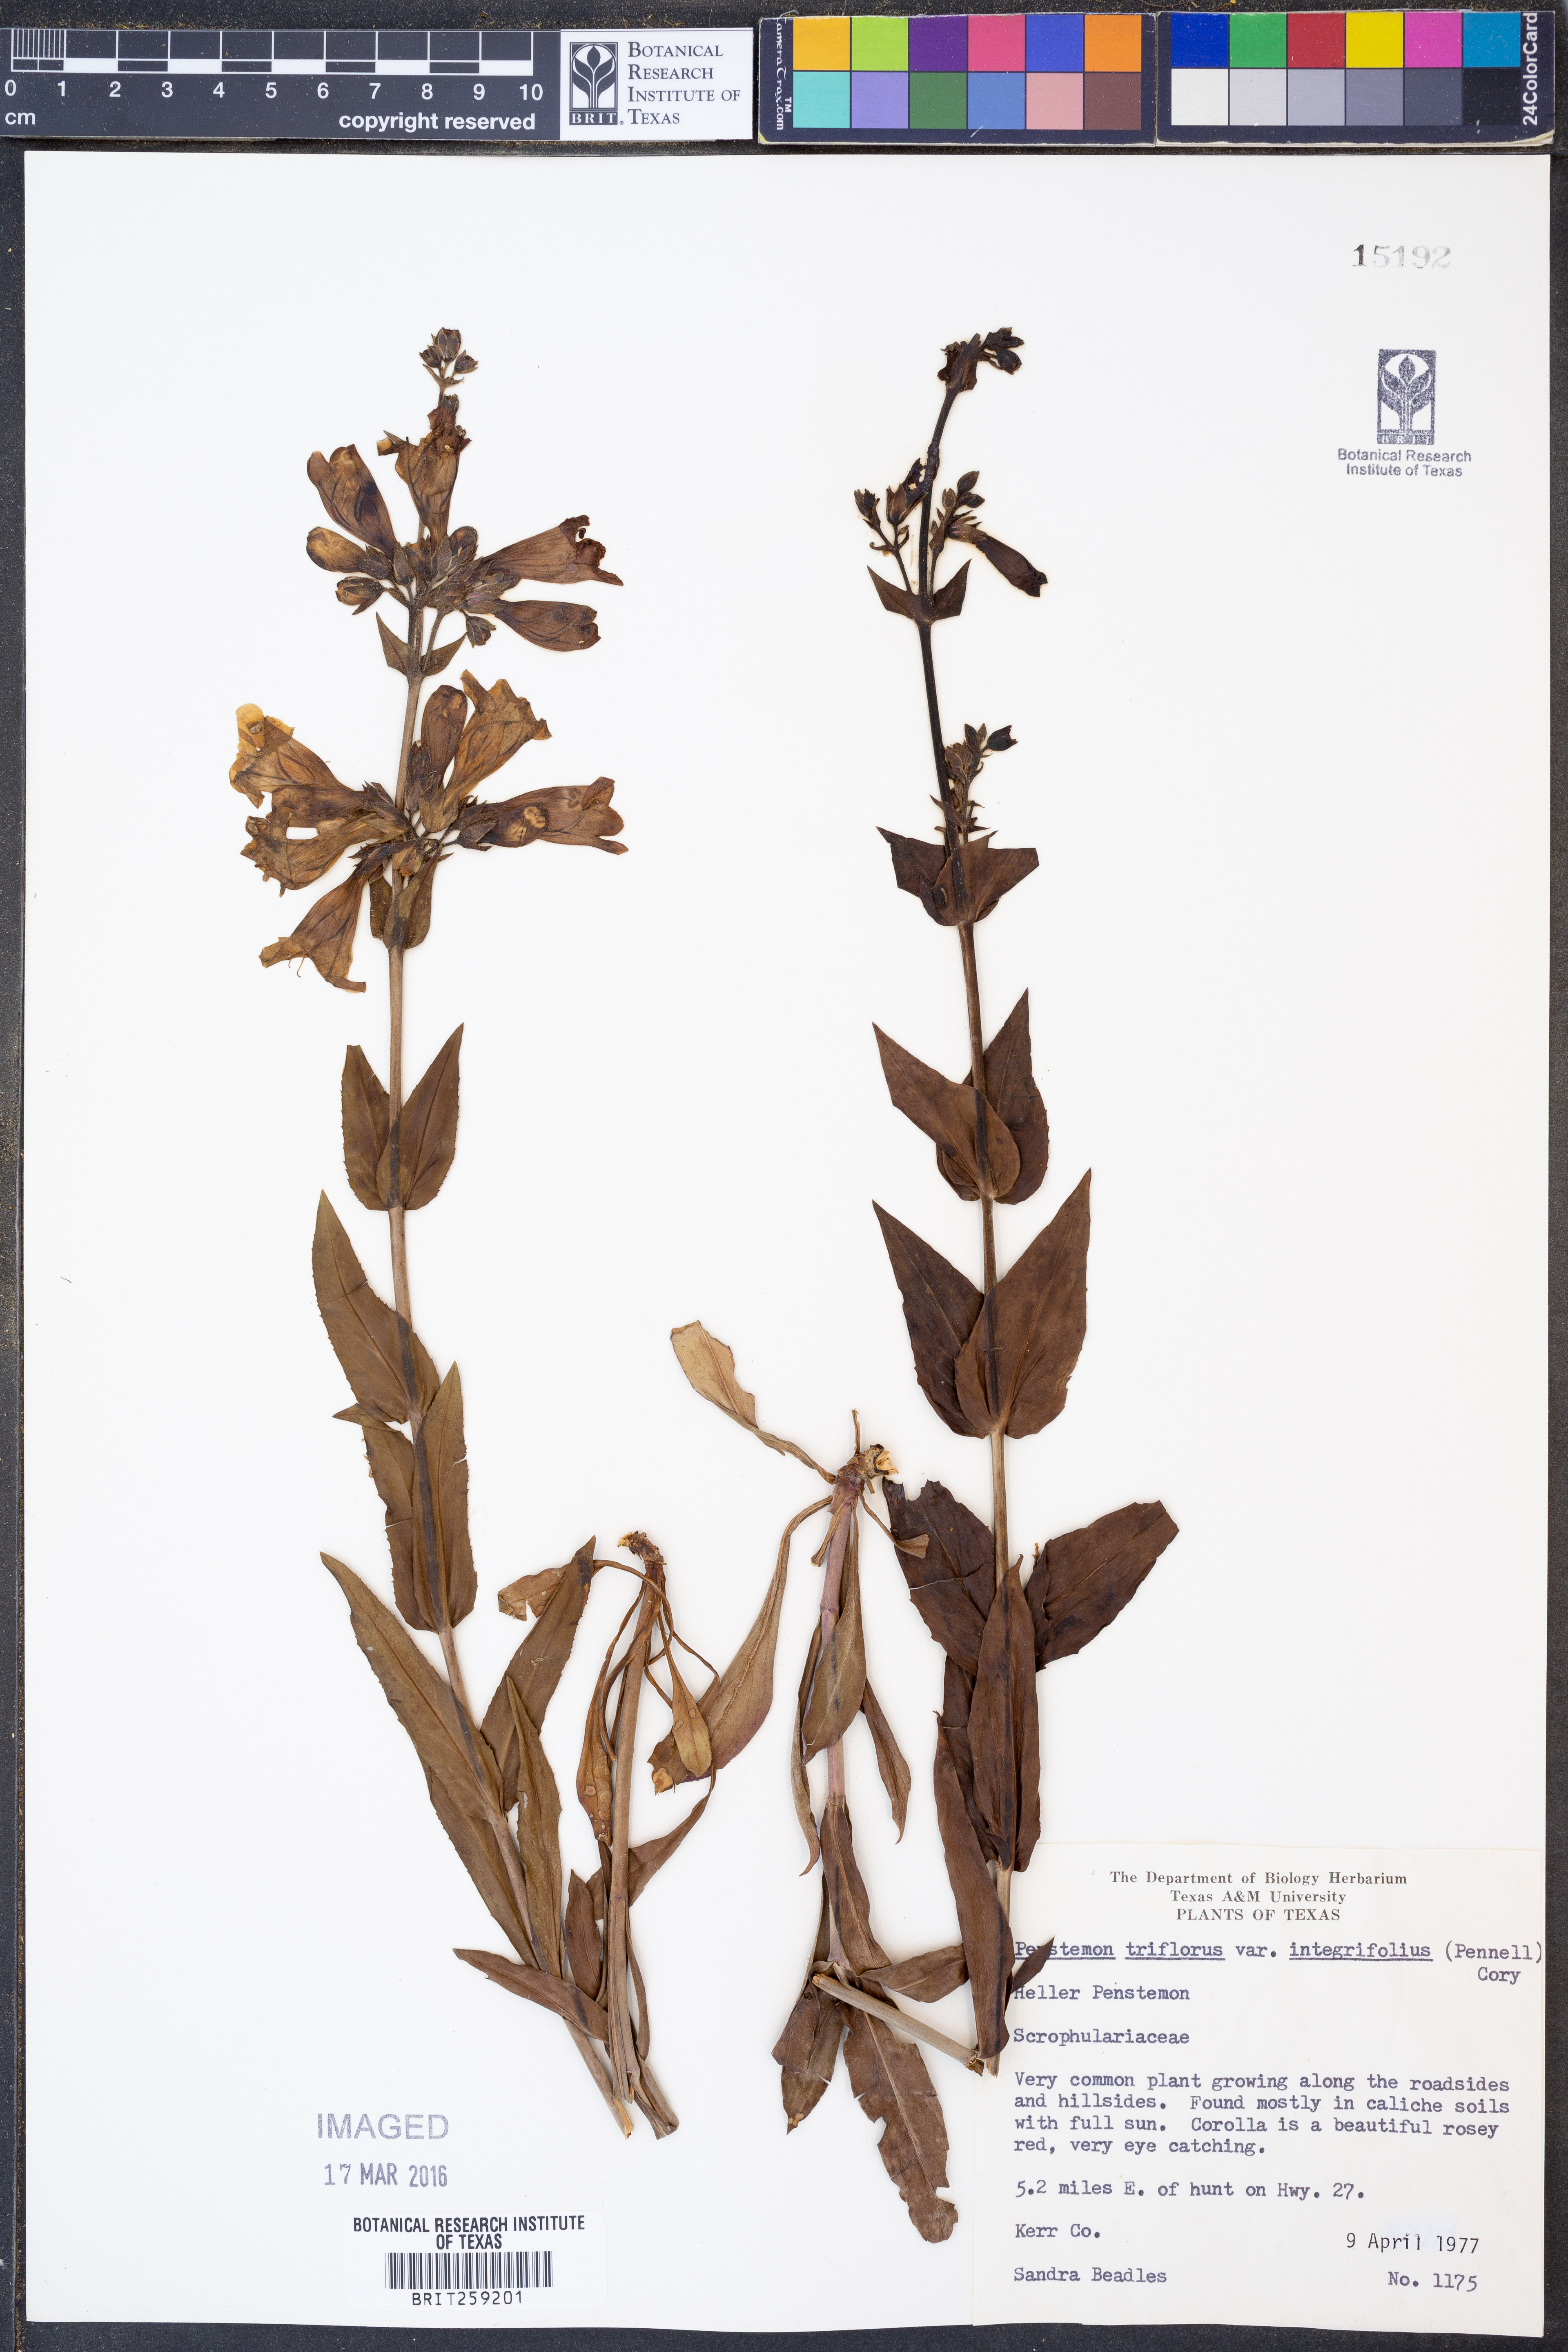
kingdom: Plantae
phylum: Tracheophyta
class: Magnoliopsida
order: Lamiales
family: Plantaginaceae
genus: Penstemon
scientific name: Penstemon triflorus
